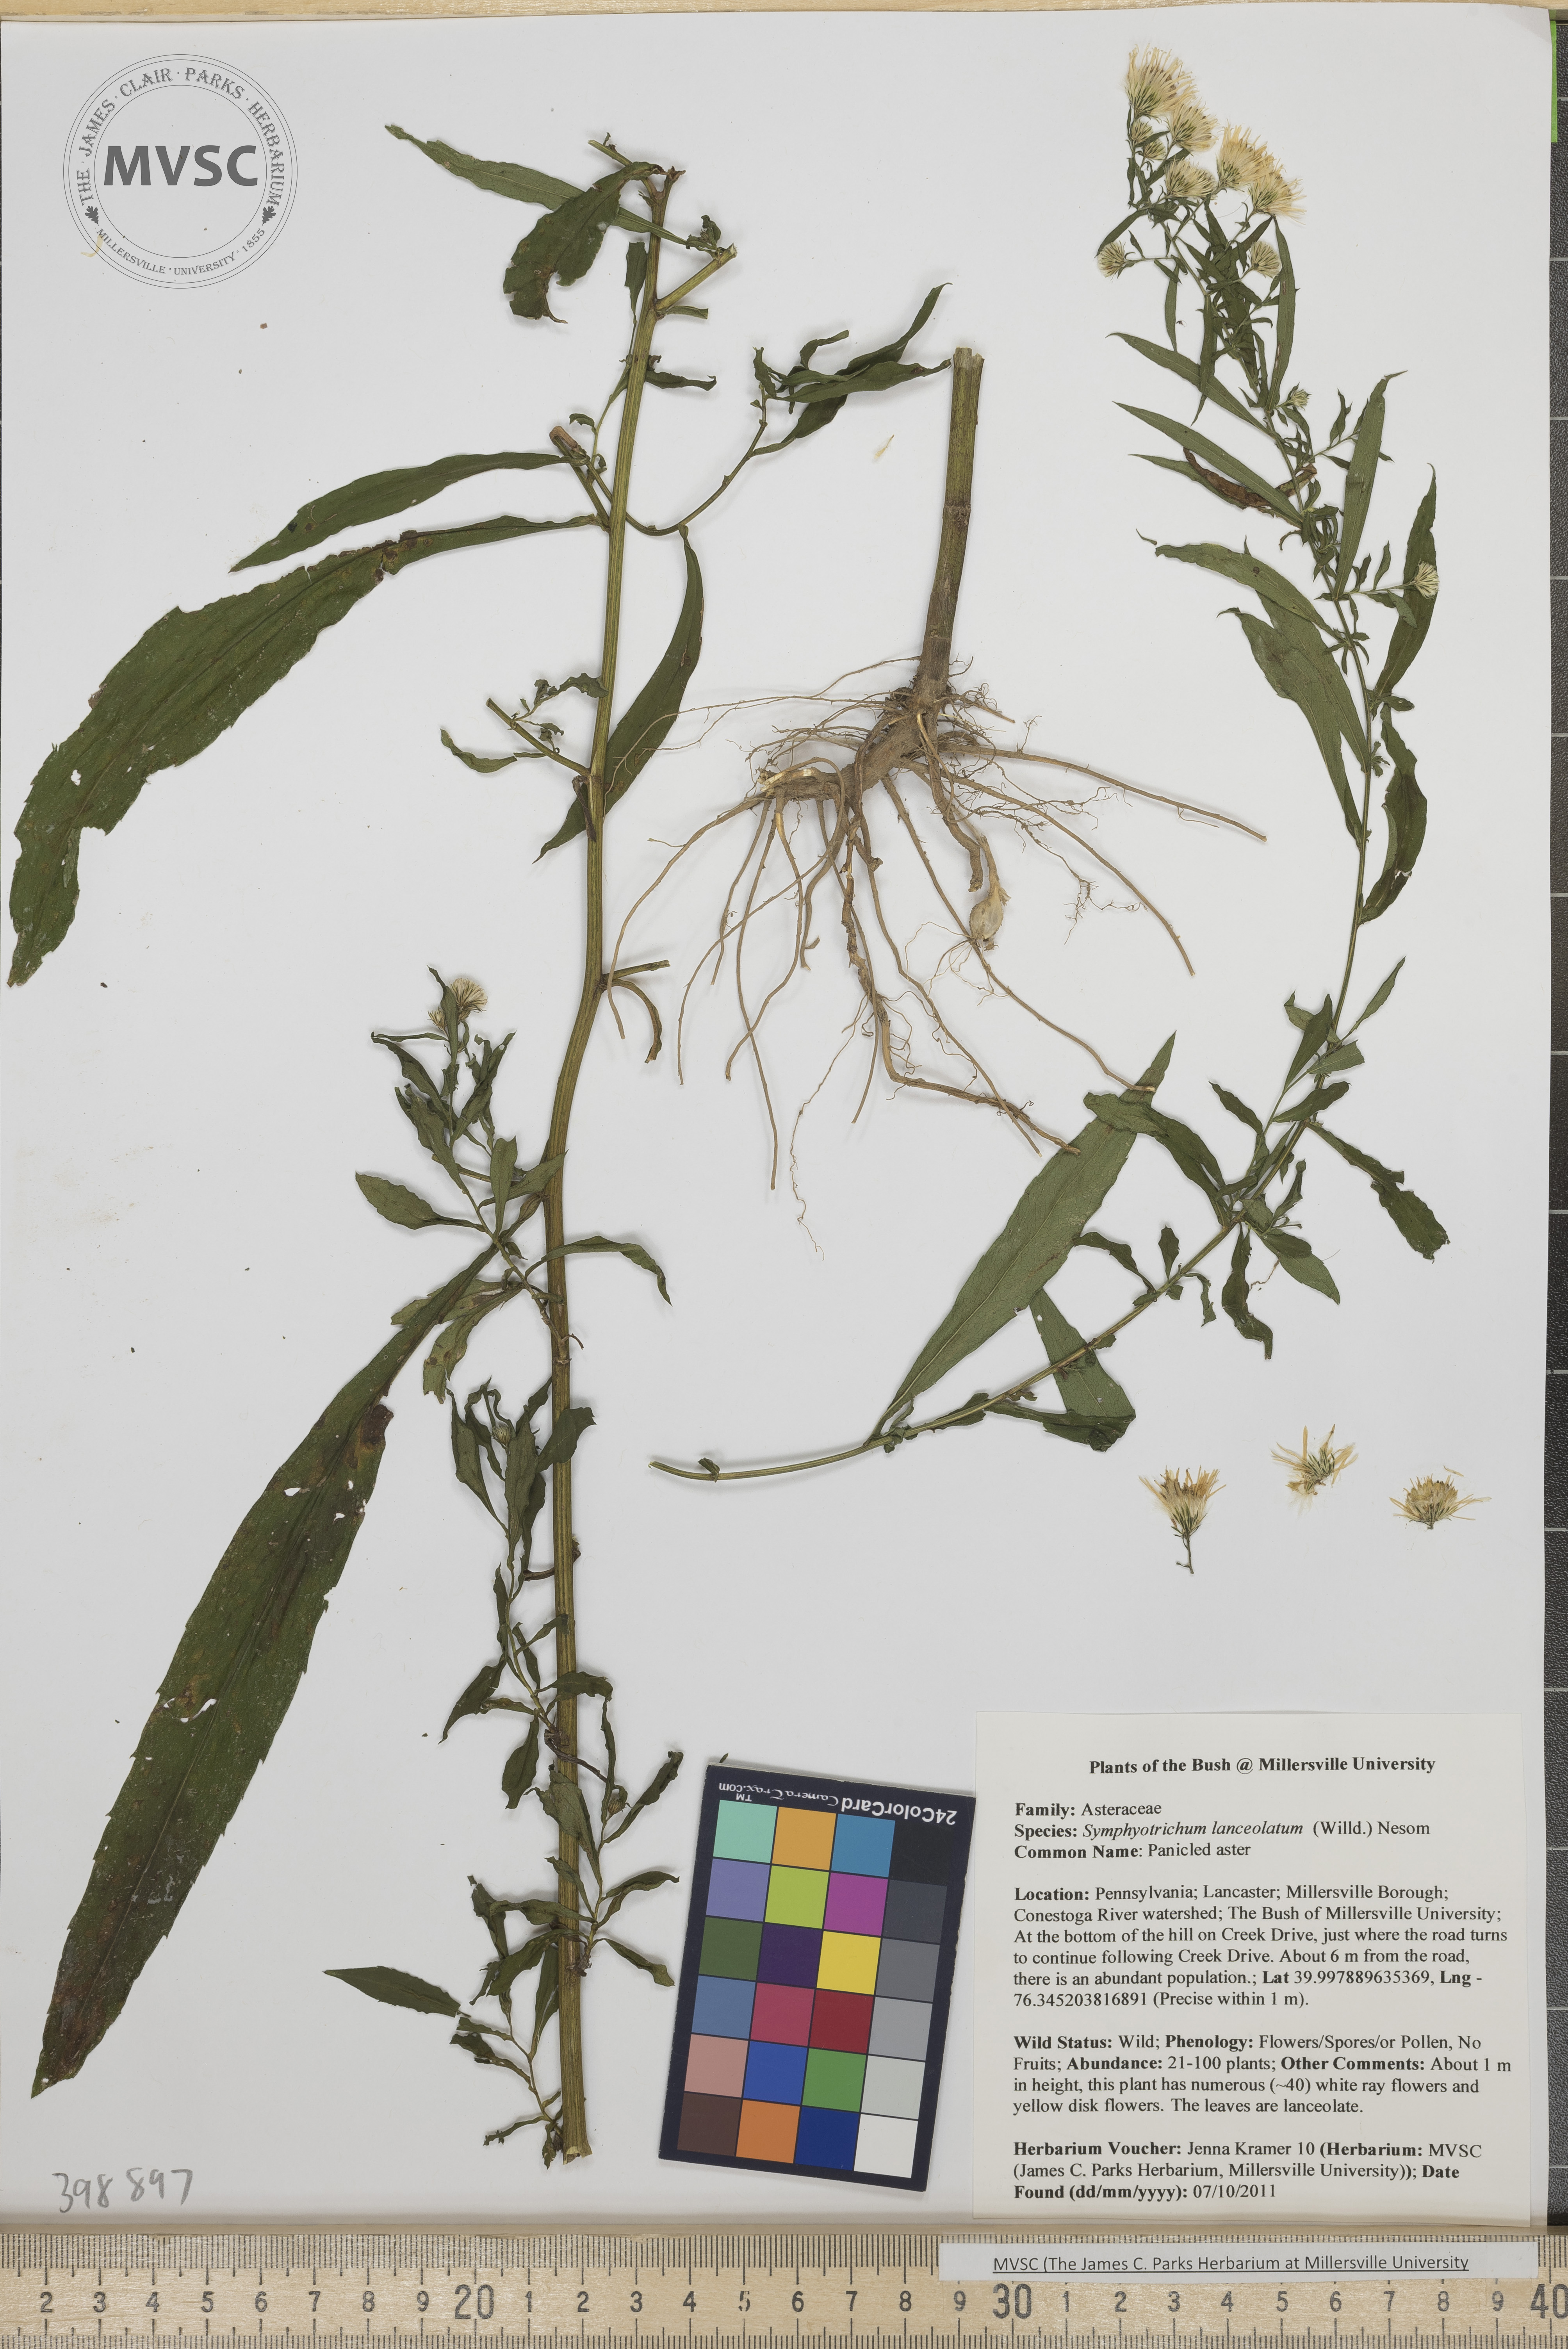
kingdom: Plantae
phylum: Tracheophyta
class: Magnoliopsida
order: Asterales
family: Asteraceae
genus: Symphyotrichum
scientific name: Symphyotrichum lanceolatum
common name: Smooth blue aster
